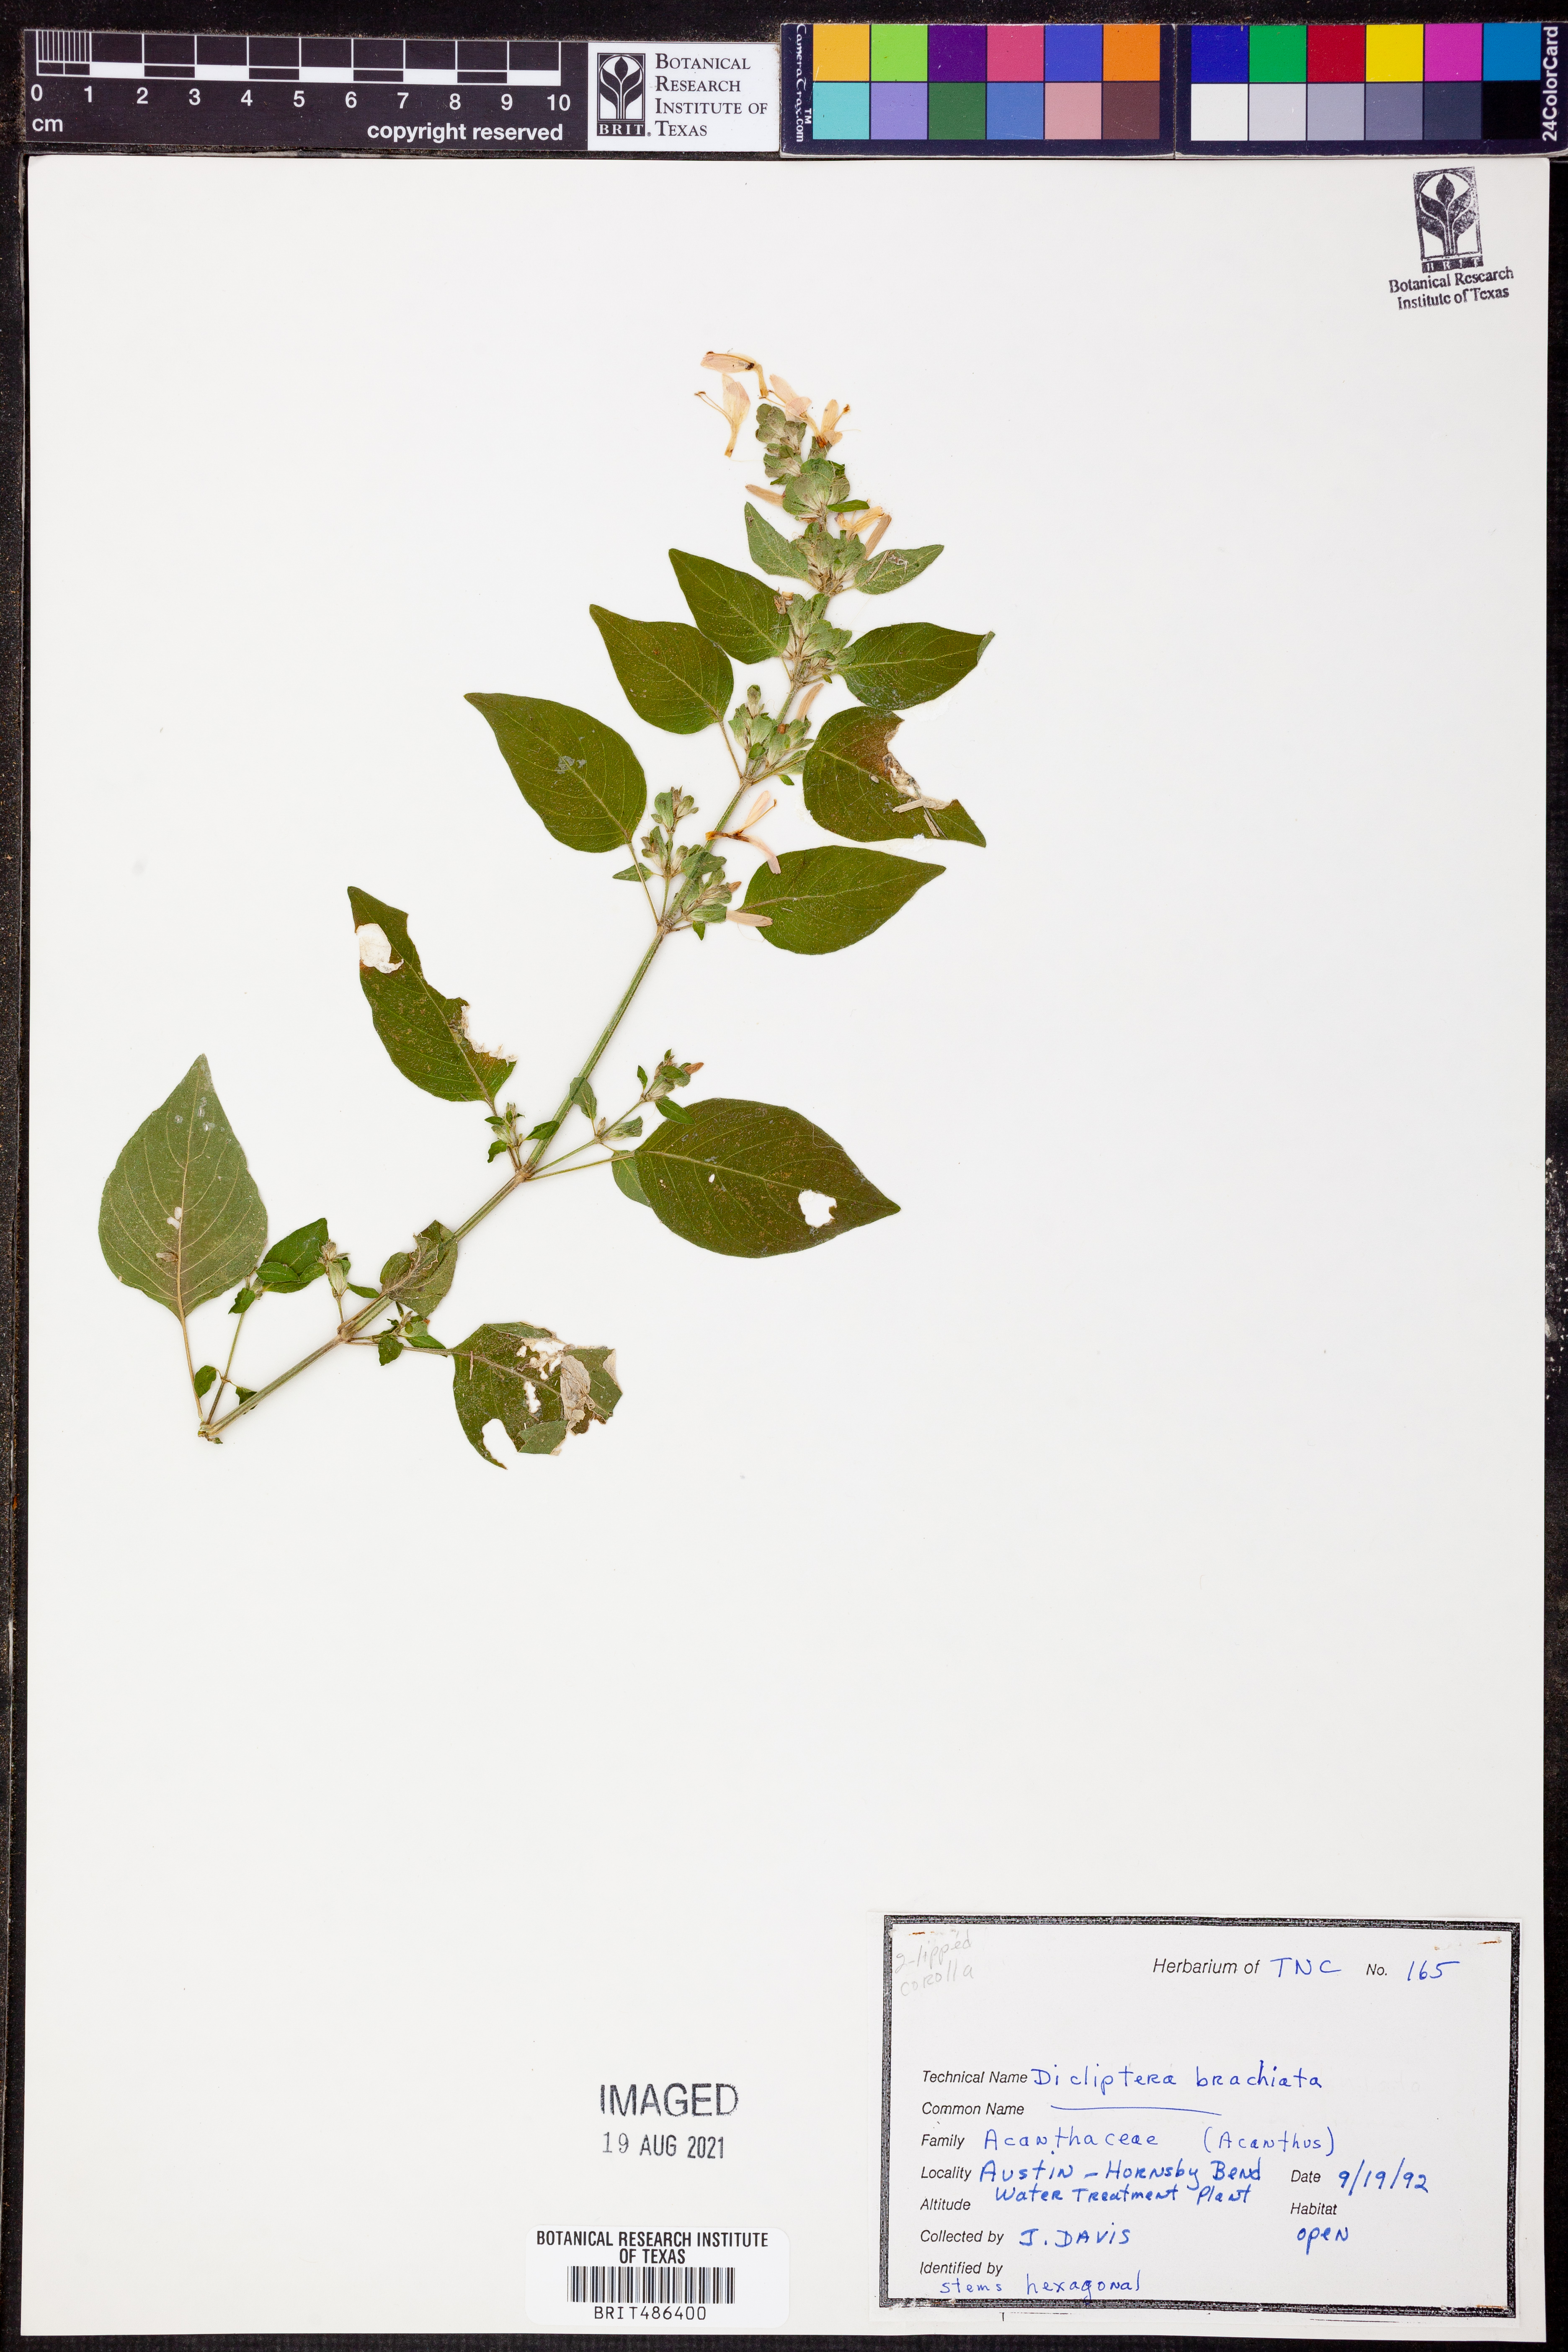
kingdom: Plantae
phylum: Tracheophyta
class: Magnoliopsida
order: Lamiales
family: Acanthaceae
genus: Dicliptera
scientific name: Dicliptera brachiata
